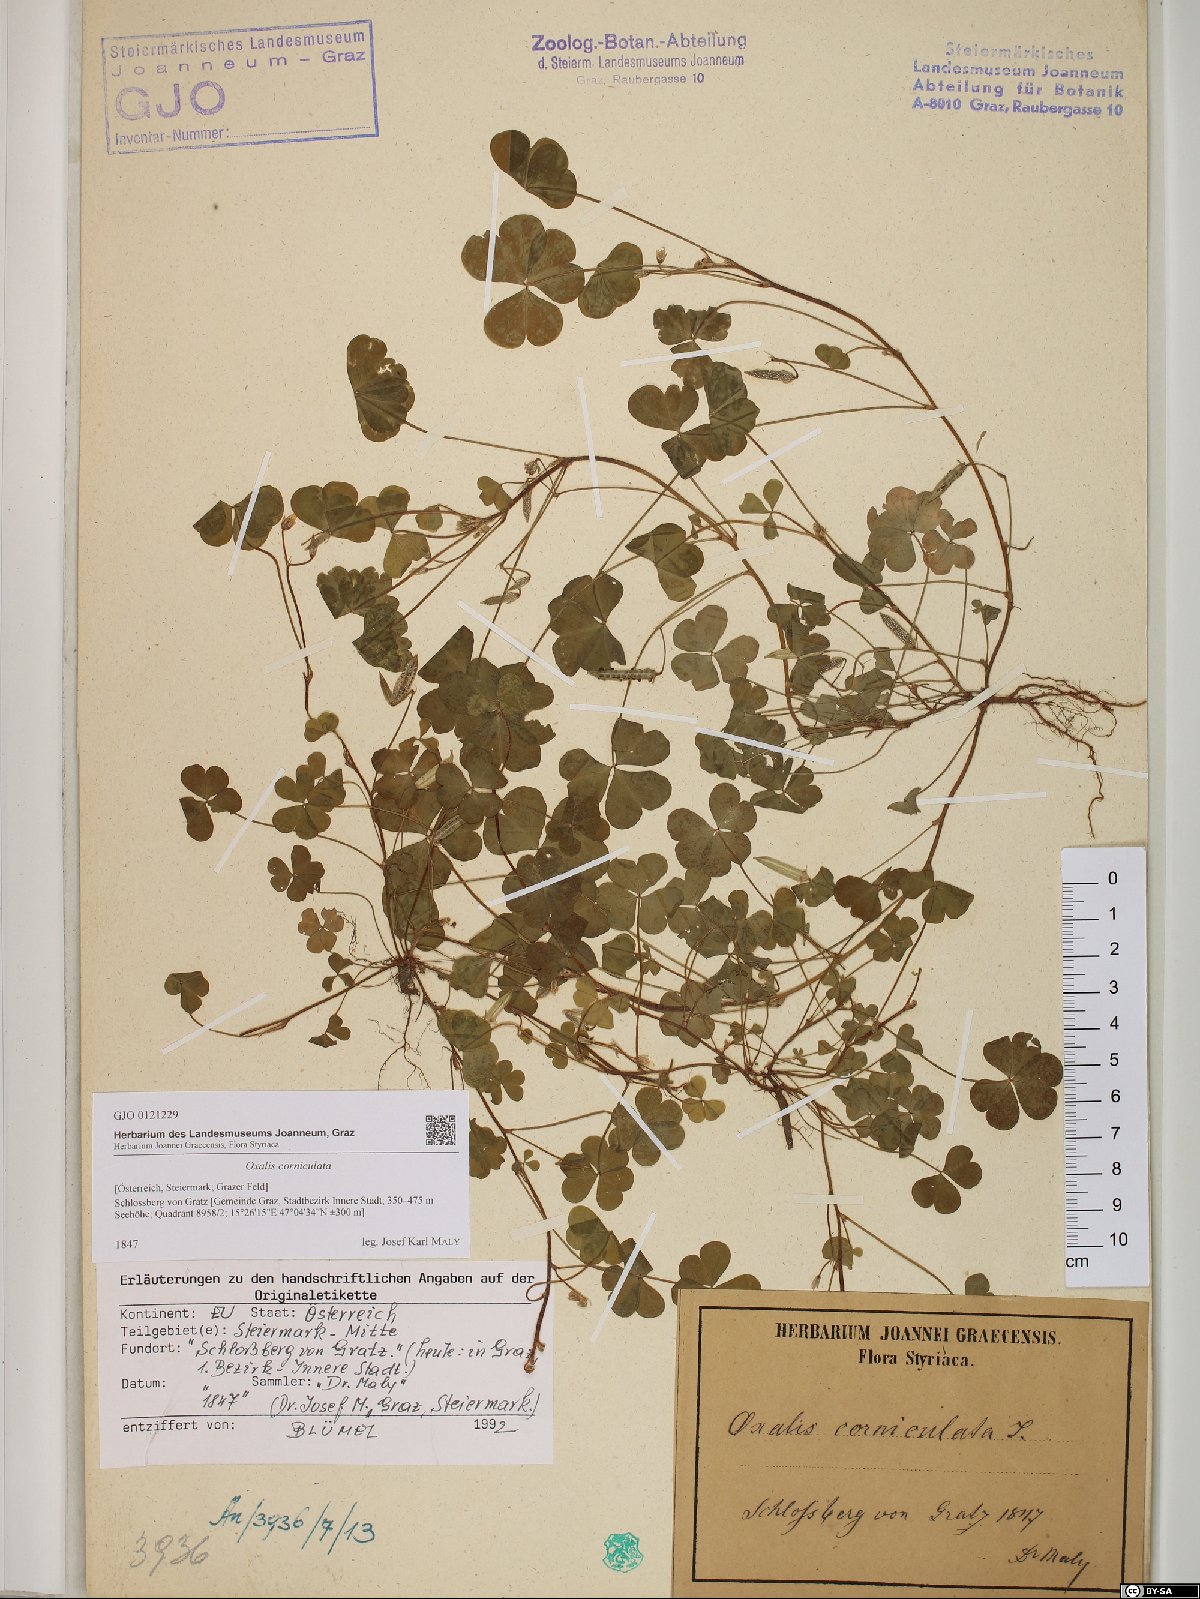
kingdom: Plantae
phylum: Tracheophyta
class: Magnoliopsida
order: Oxalidales
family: Oxalidaceae
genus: Oxalis
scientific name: Oxalis corniculata
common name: Procumbent yellow-sorrel
